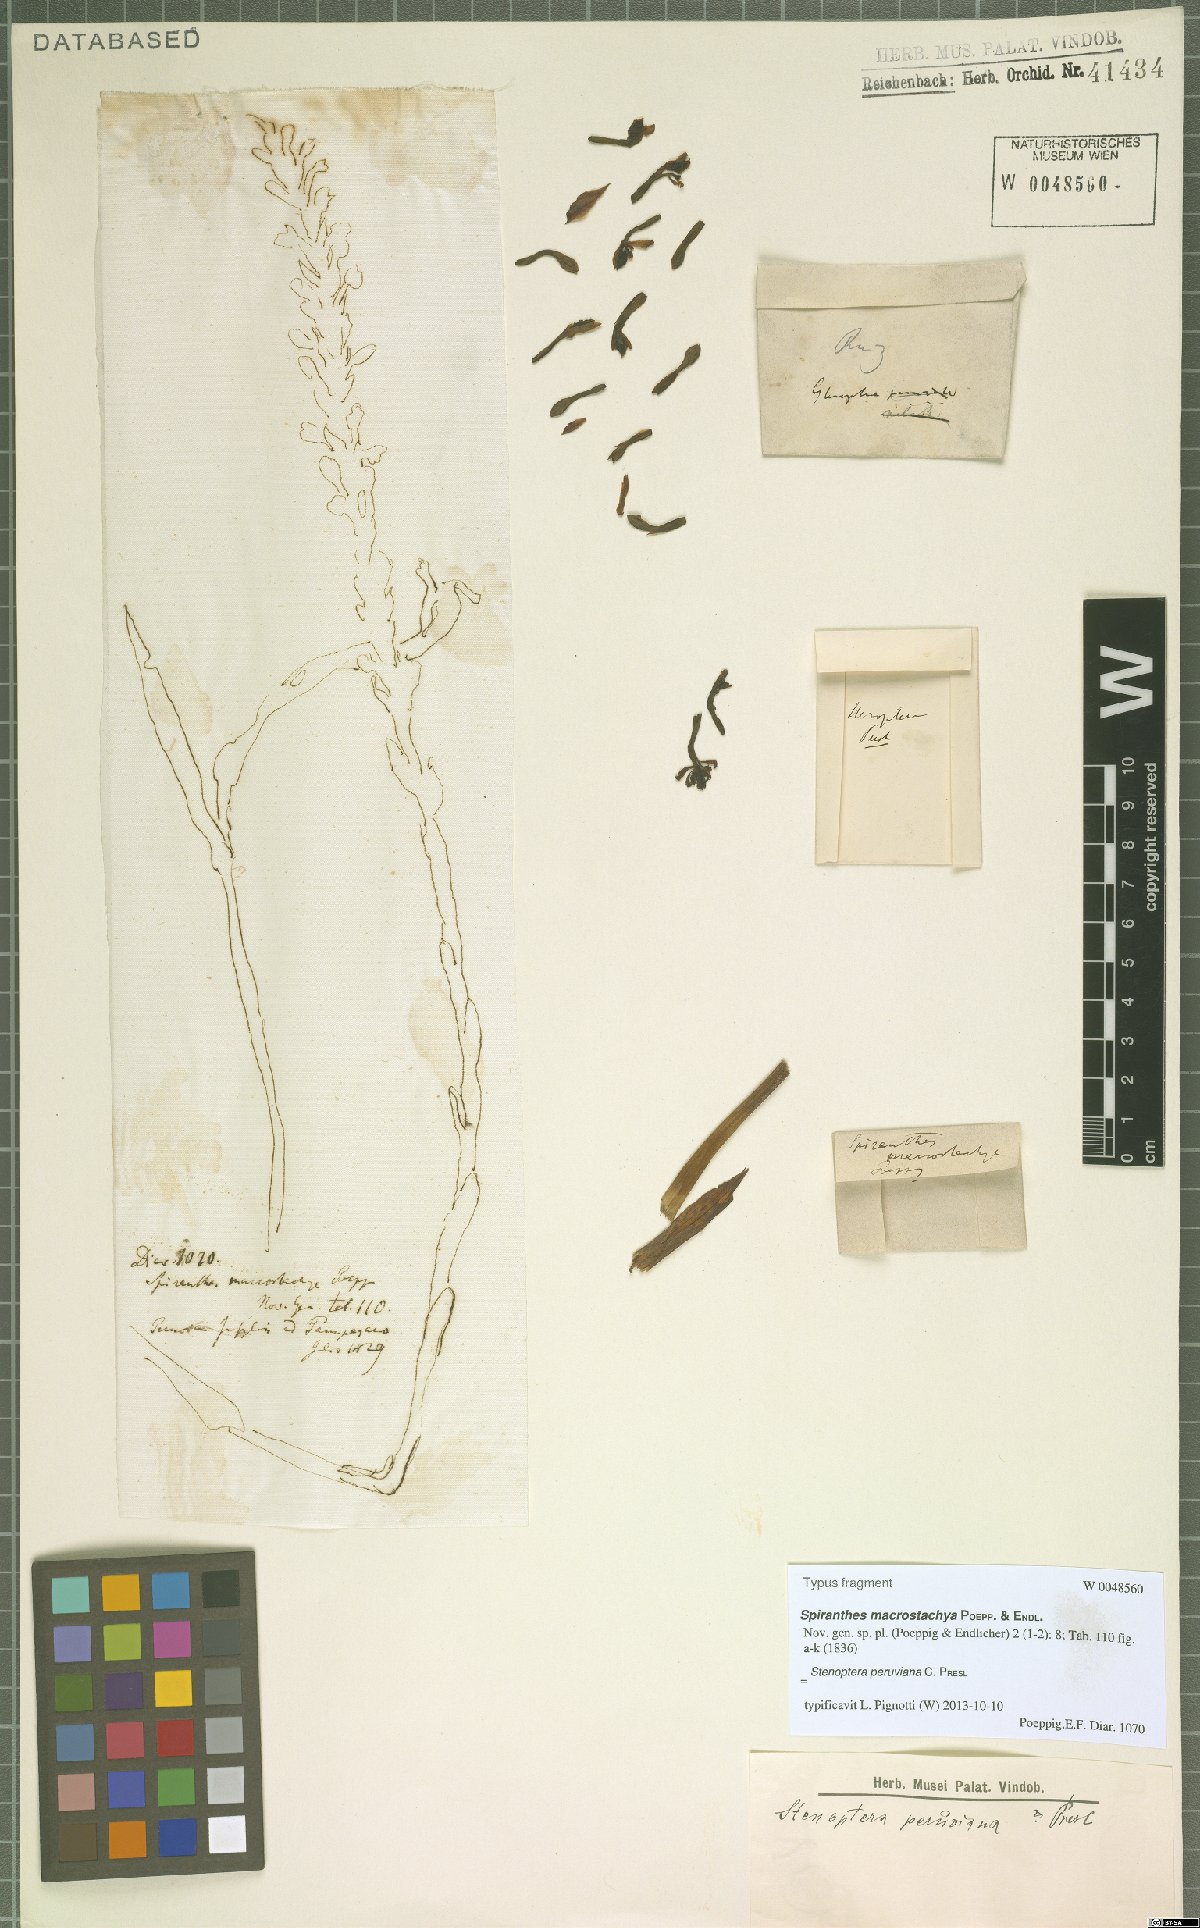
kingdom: Plantae
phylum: Tracheophyta
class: Liliopsida
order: Asparagales
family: Orchidaceae
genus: Stenoptera
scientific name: Stenoptera peruviana
